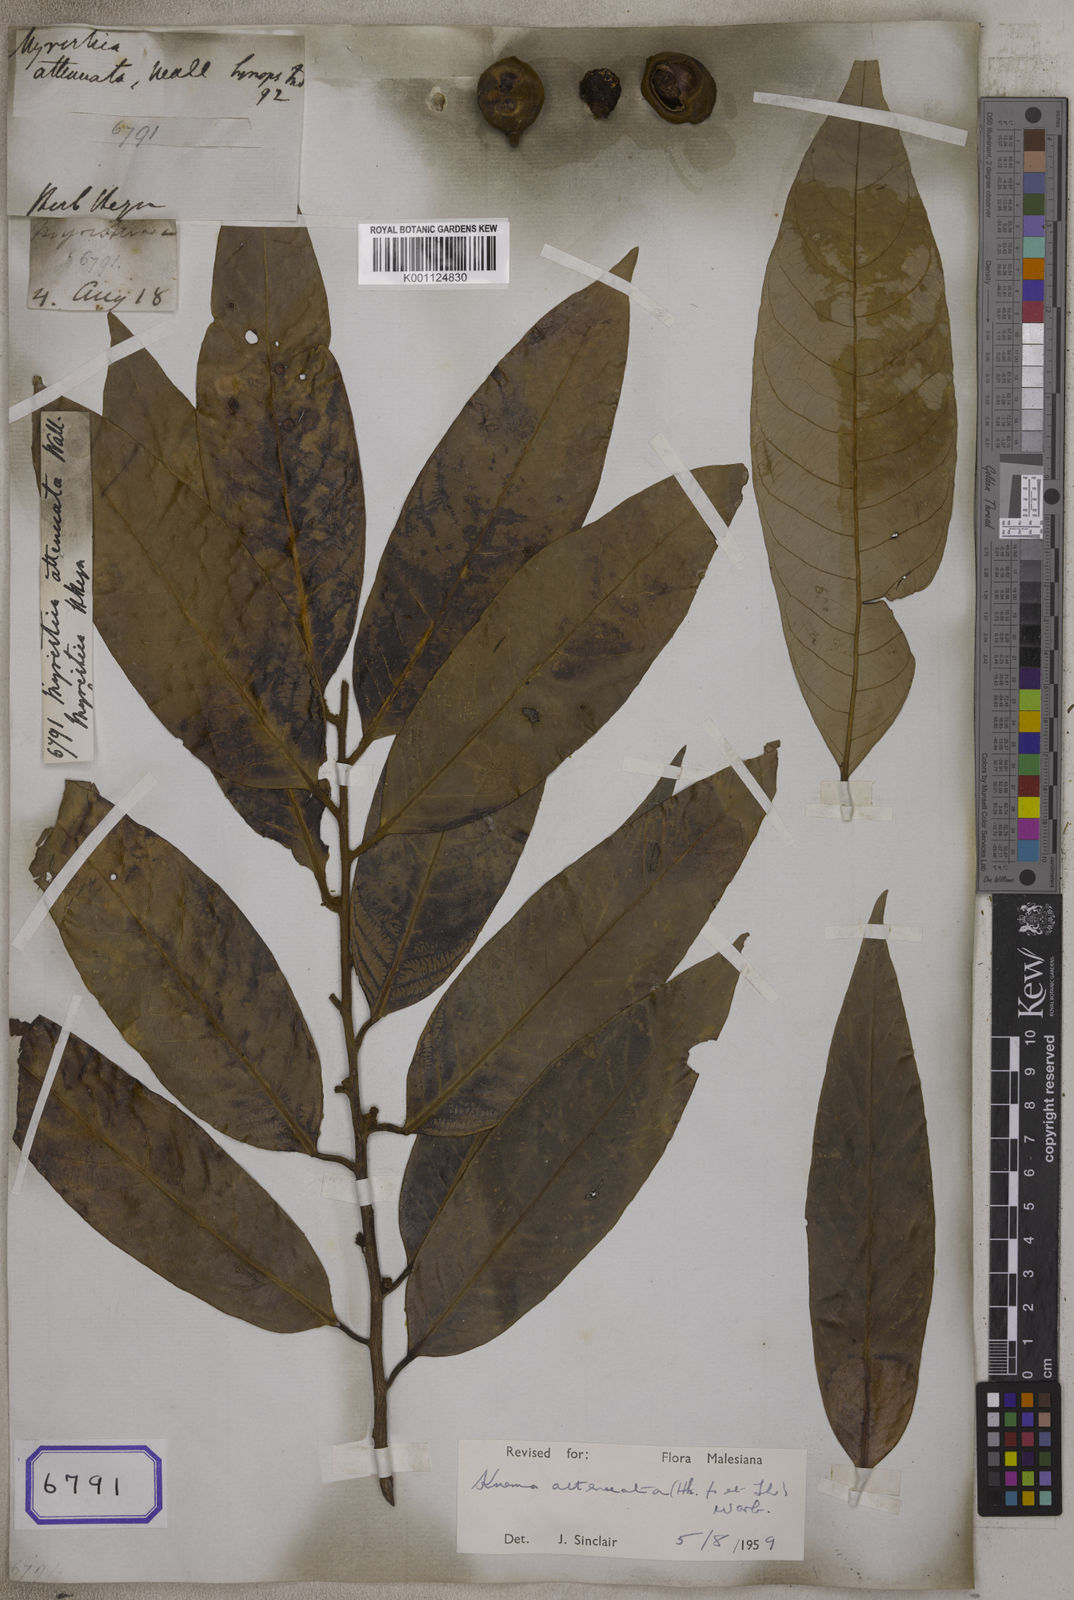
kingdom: Plantae
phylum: Tracheophyta
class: Magnoliopsida
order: Magnoliales
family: Myristicaceae
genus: Myristica
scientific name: Myristica
